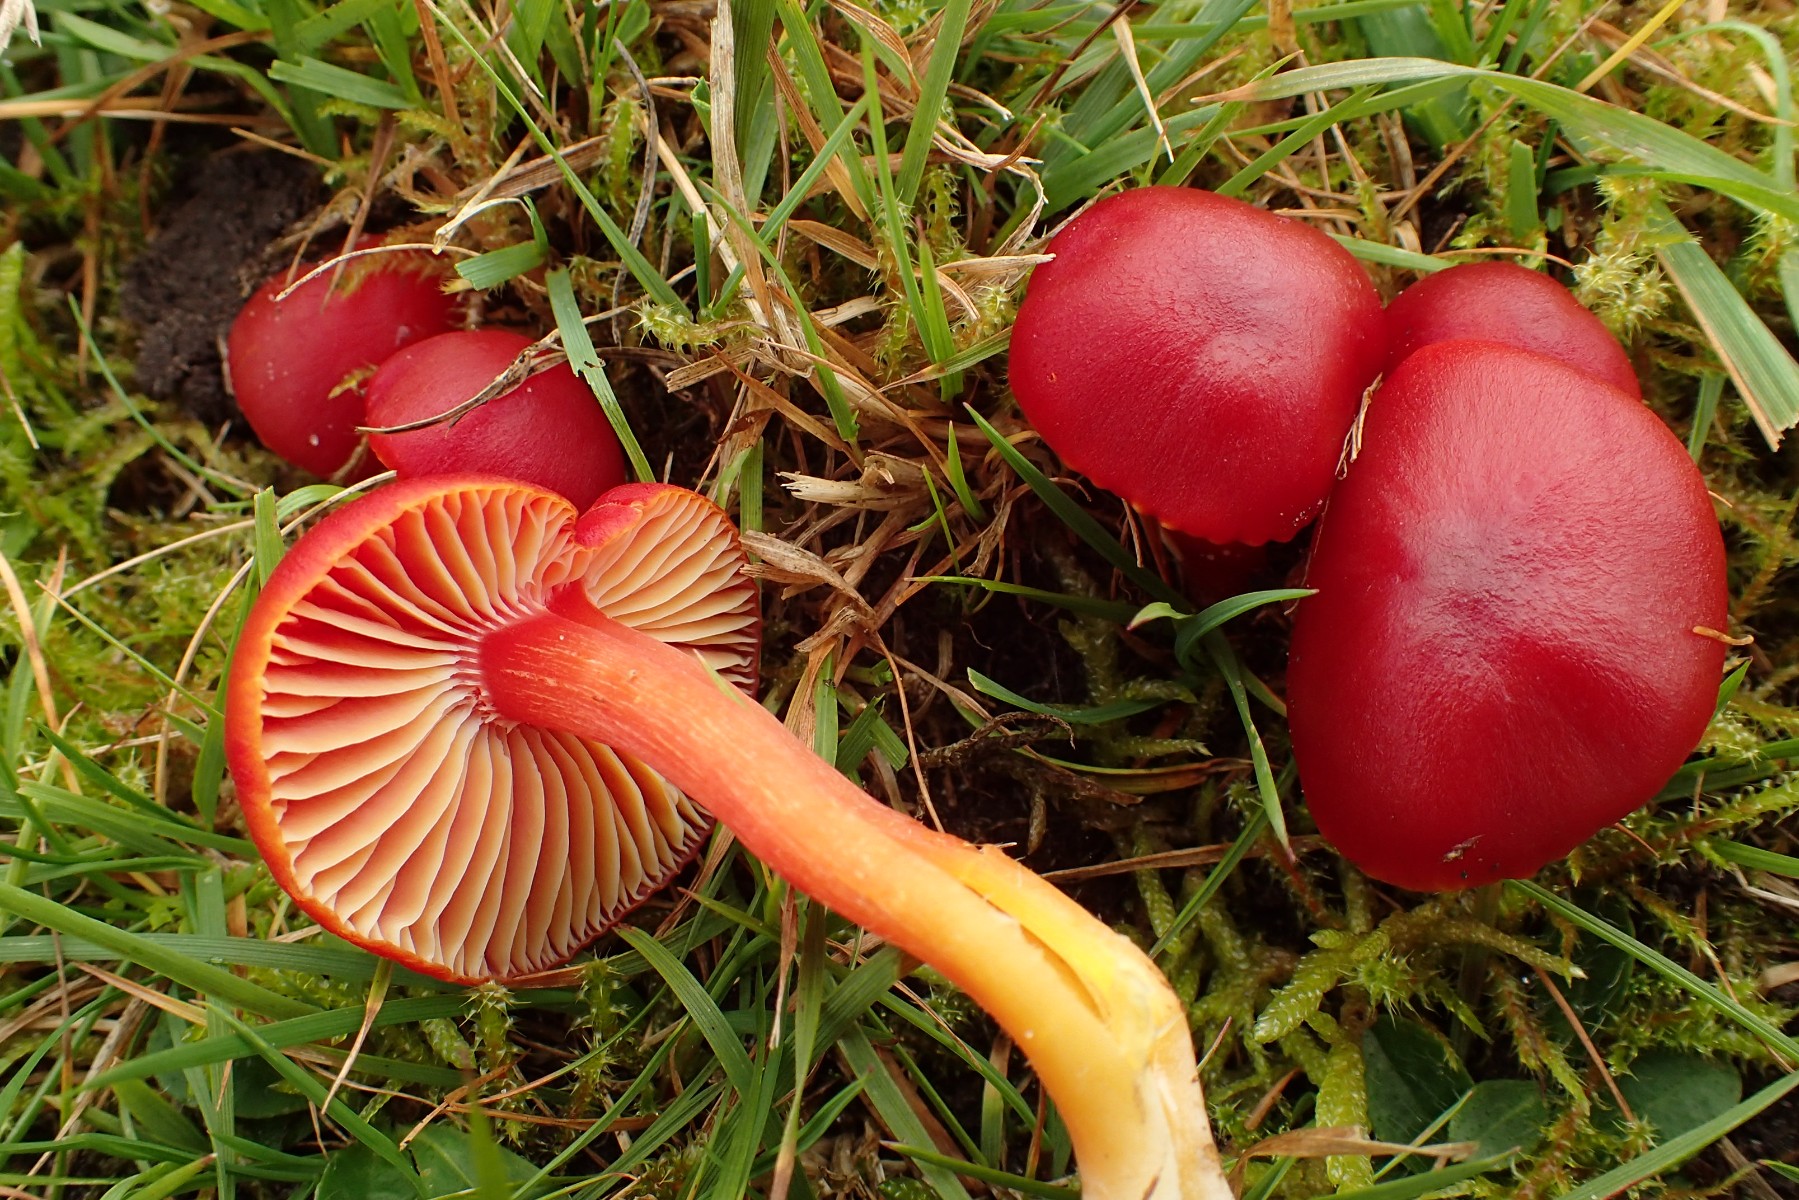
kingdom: Fungi
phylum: Basidiomycota
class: Agaricomycetes
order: Agaricales
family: Hygrophoraceae
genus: Hygrocybe
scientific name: Hygrocybe coccinea
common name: cinnober-vokshat
